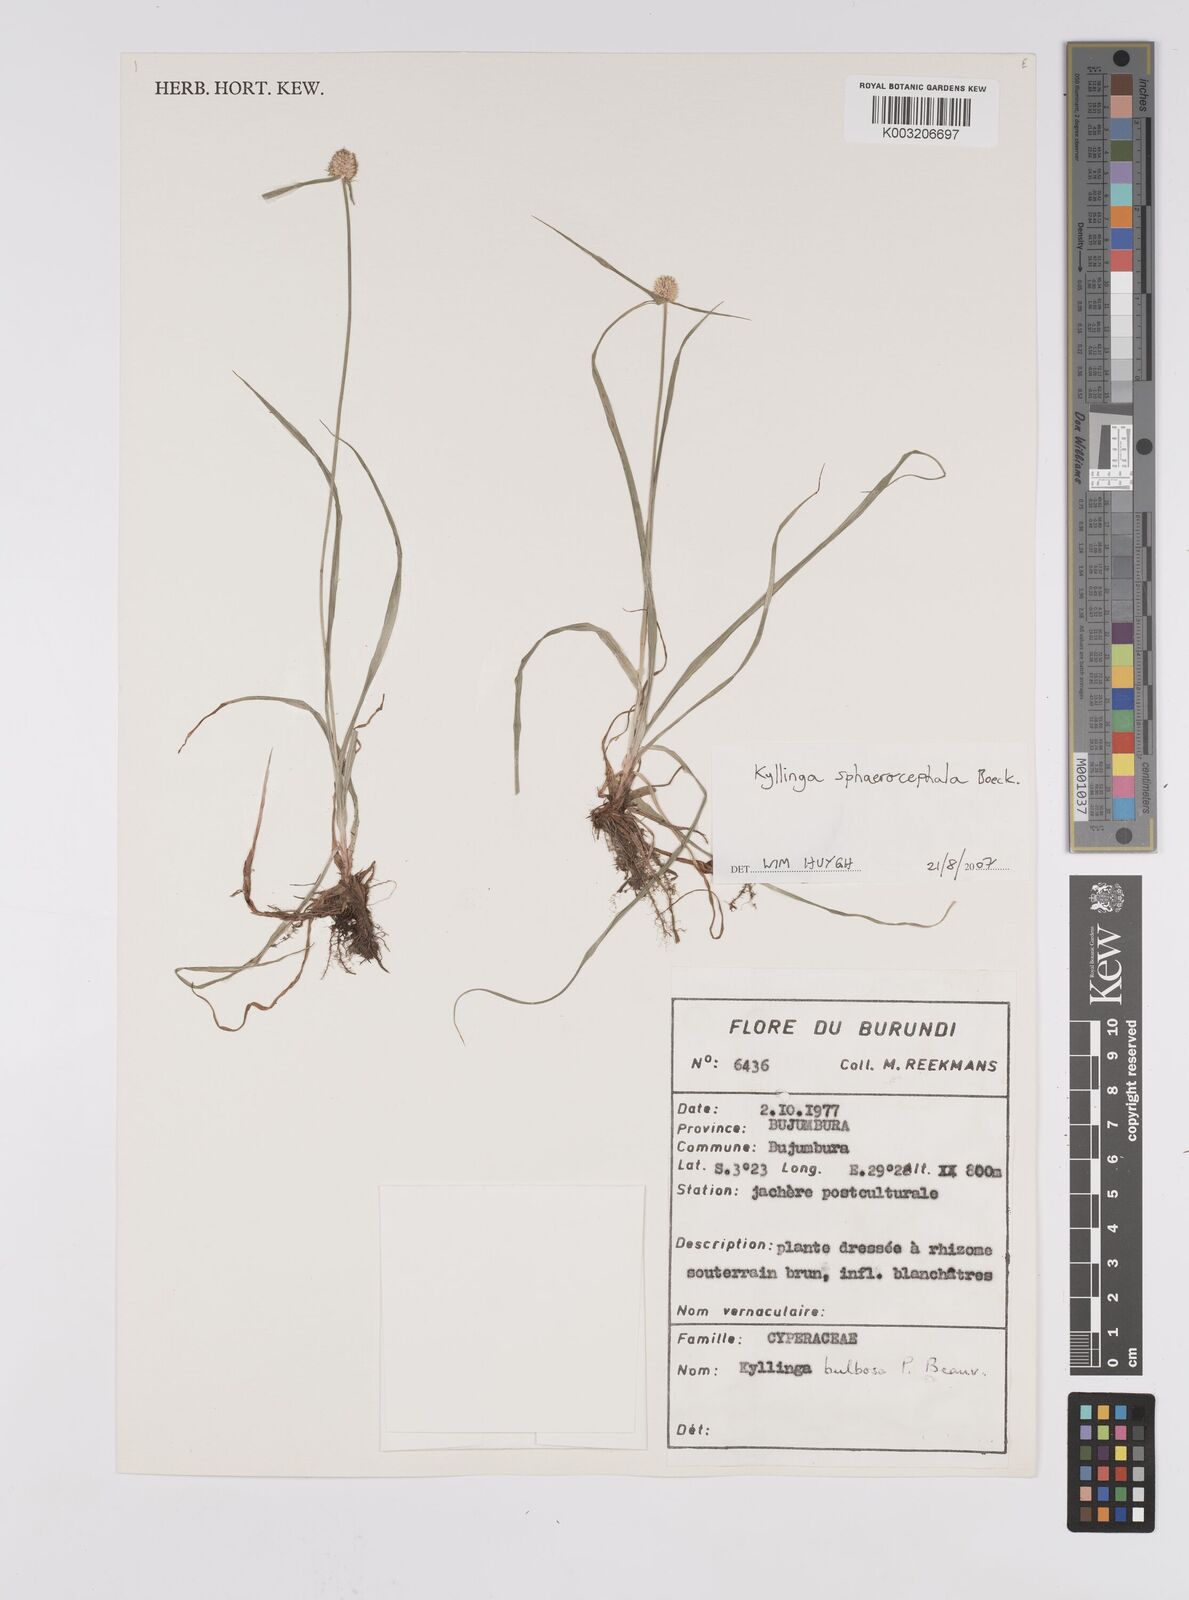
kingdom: Plantae
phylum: Tracheophyta
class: Liliopsida
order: Poales
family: Cyperaceae
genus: Cyperus
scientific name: Cyperus sphaerolepis
